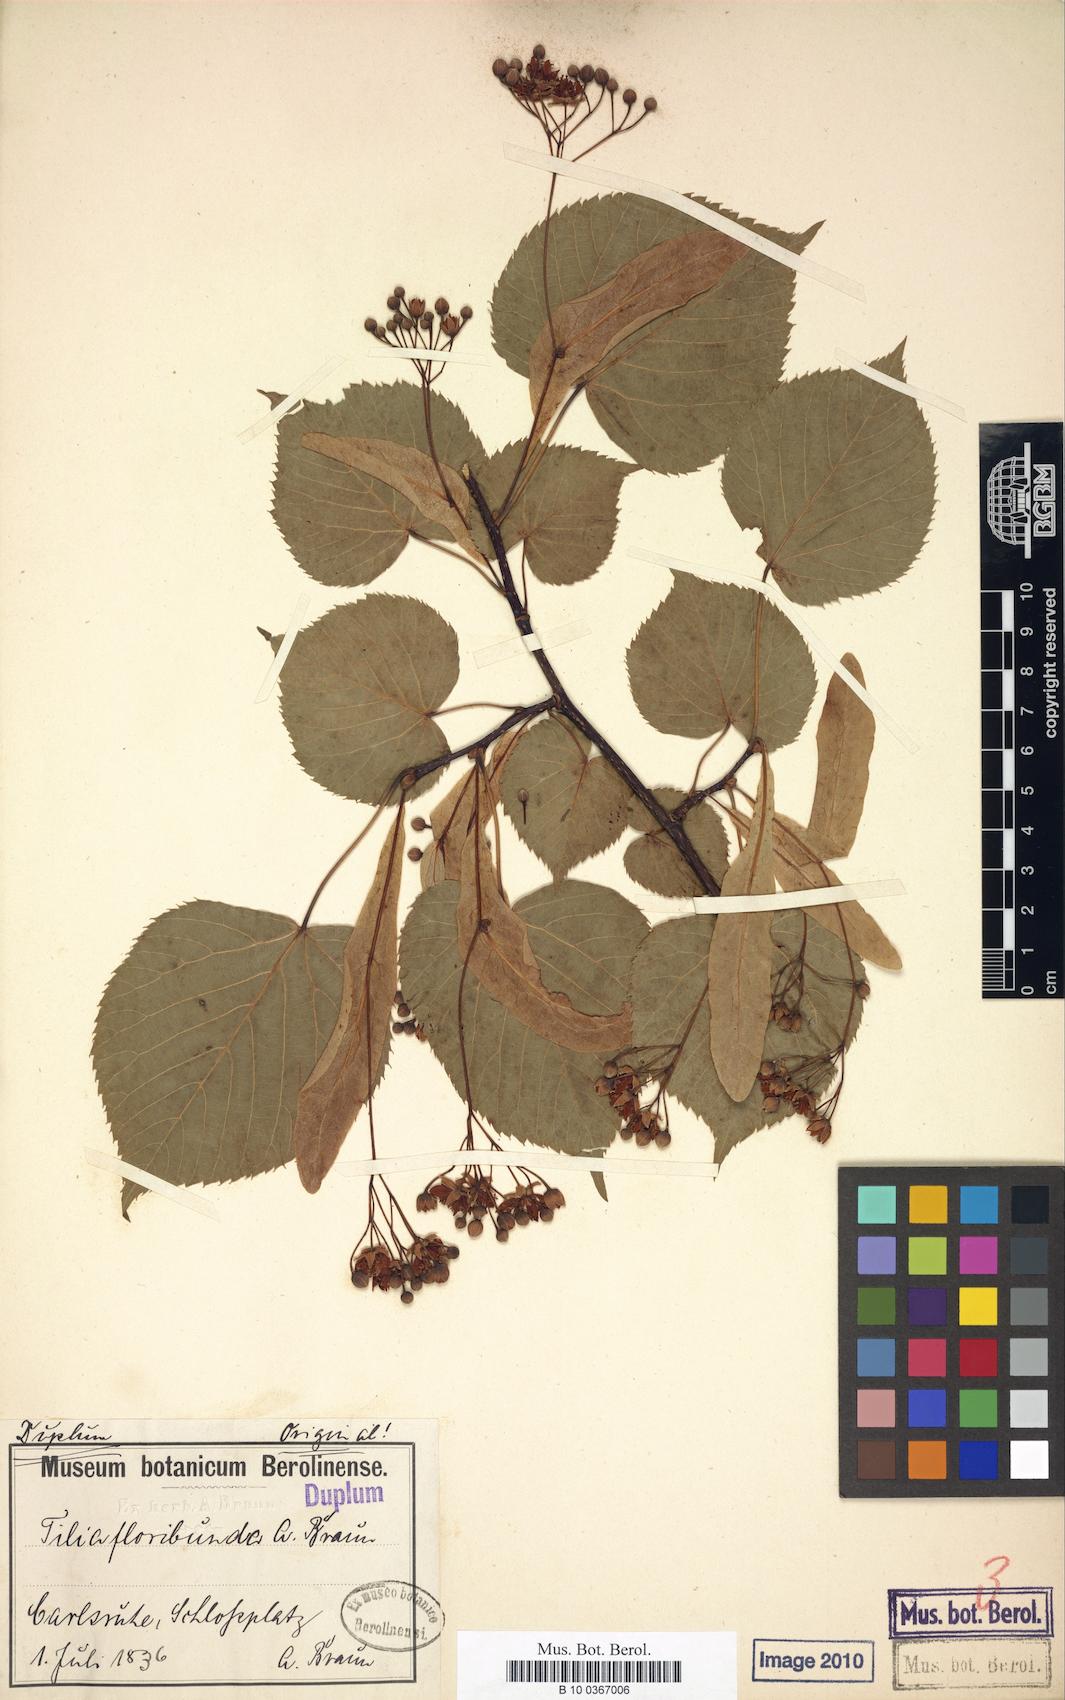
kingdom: Plantae
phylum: Tracheophyta
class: Magnoliopsida
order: Malvales
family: Malvaceae
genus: Tilia
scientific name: Tilia flavescens
